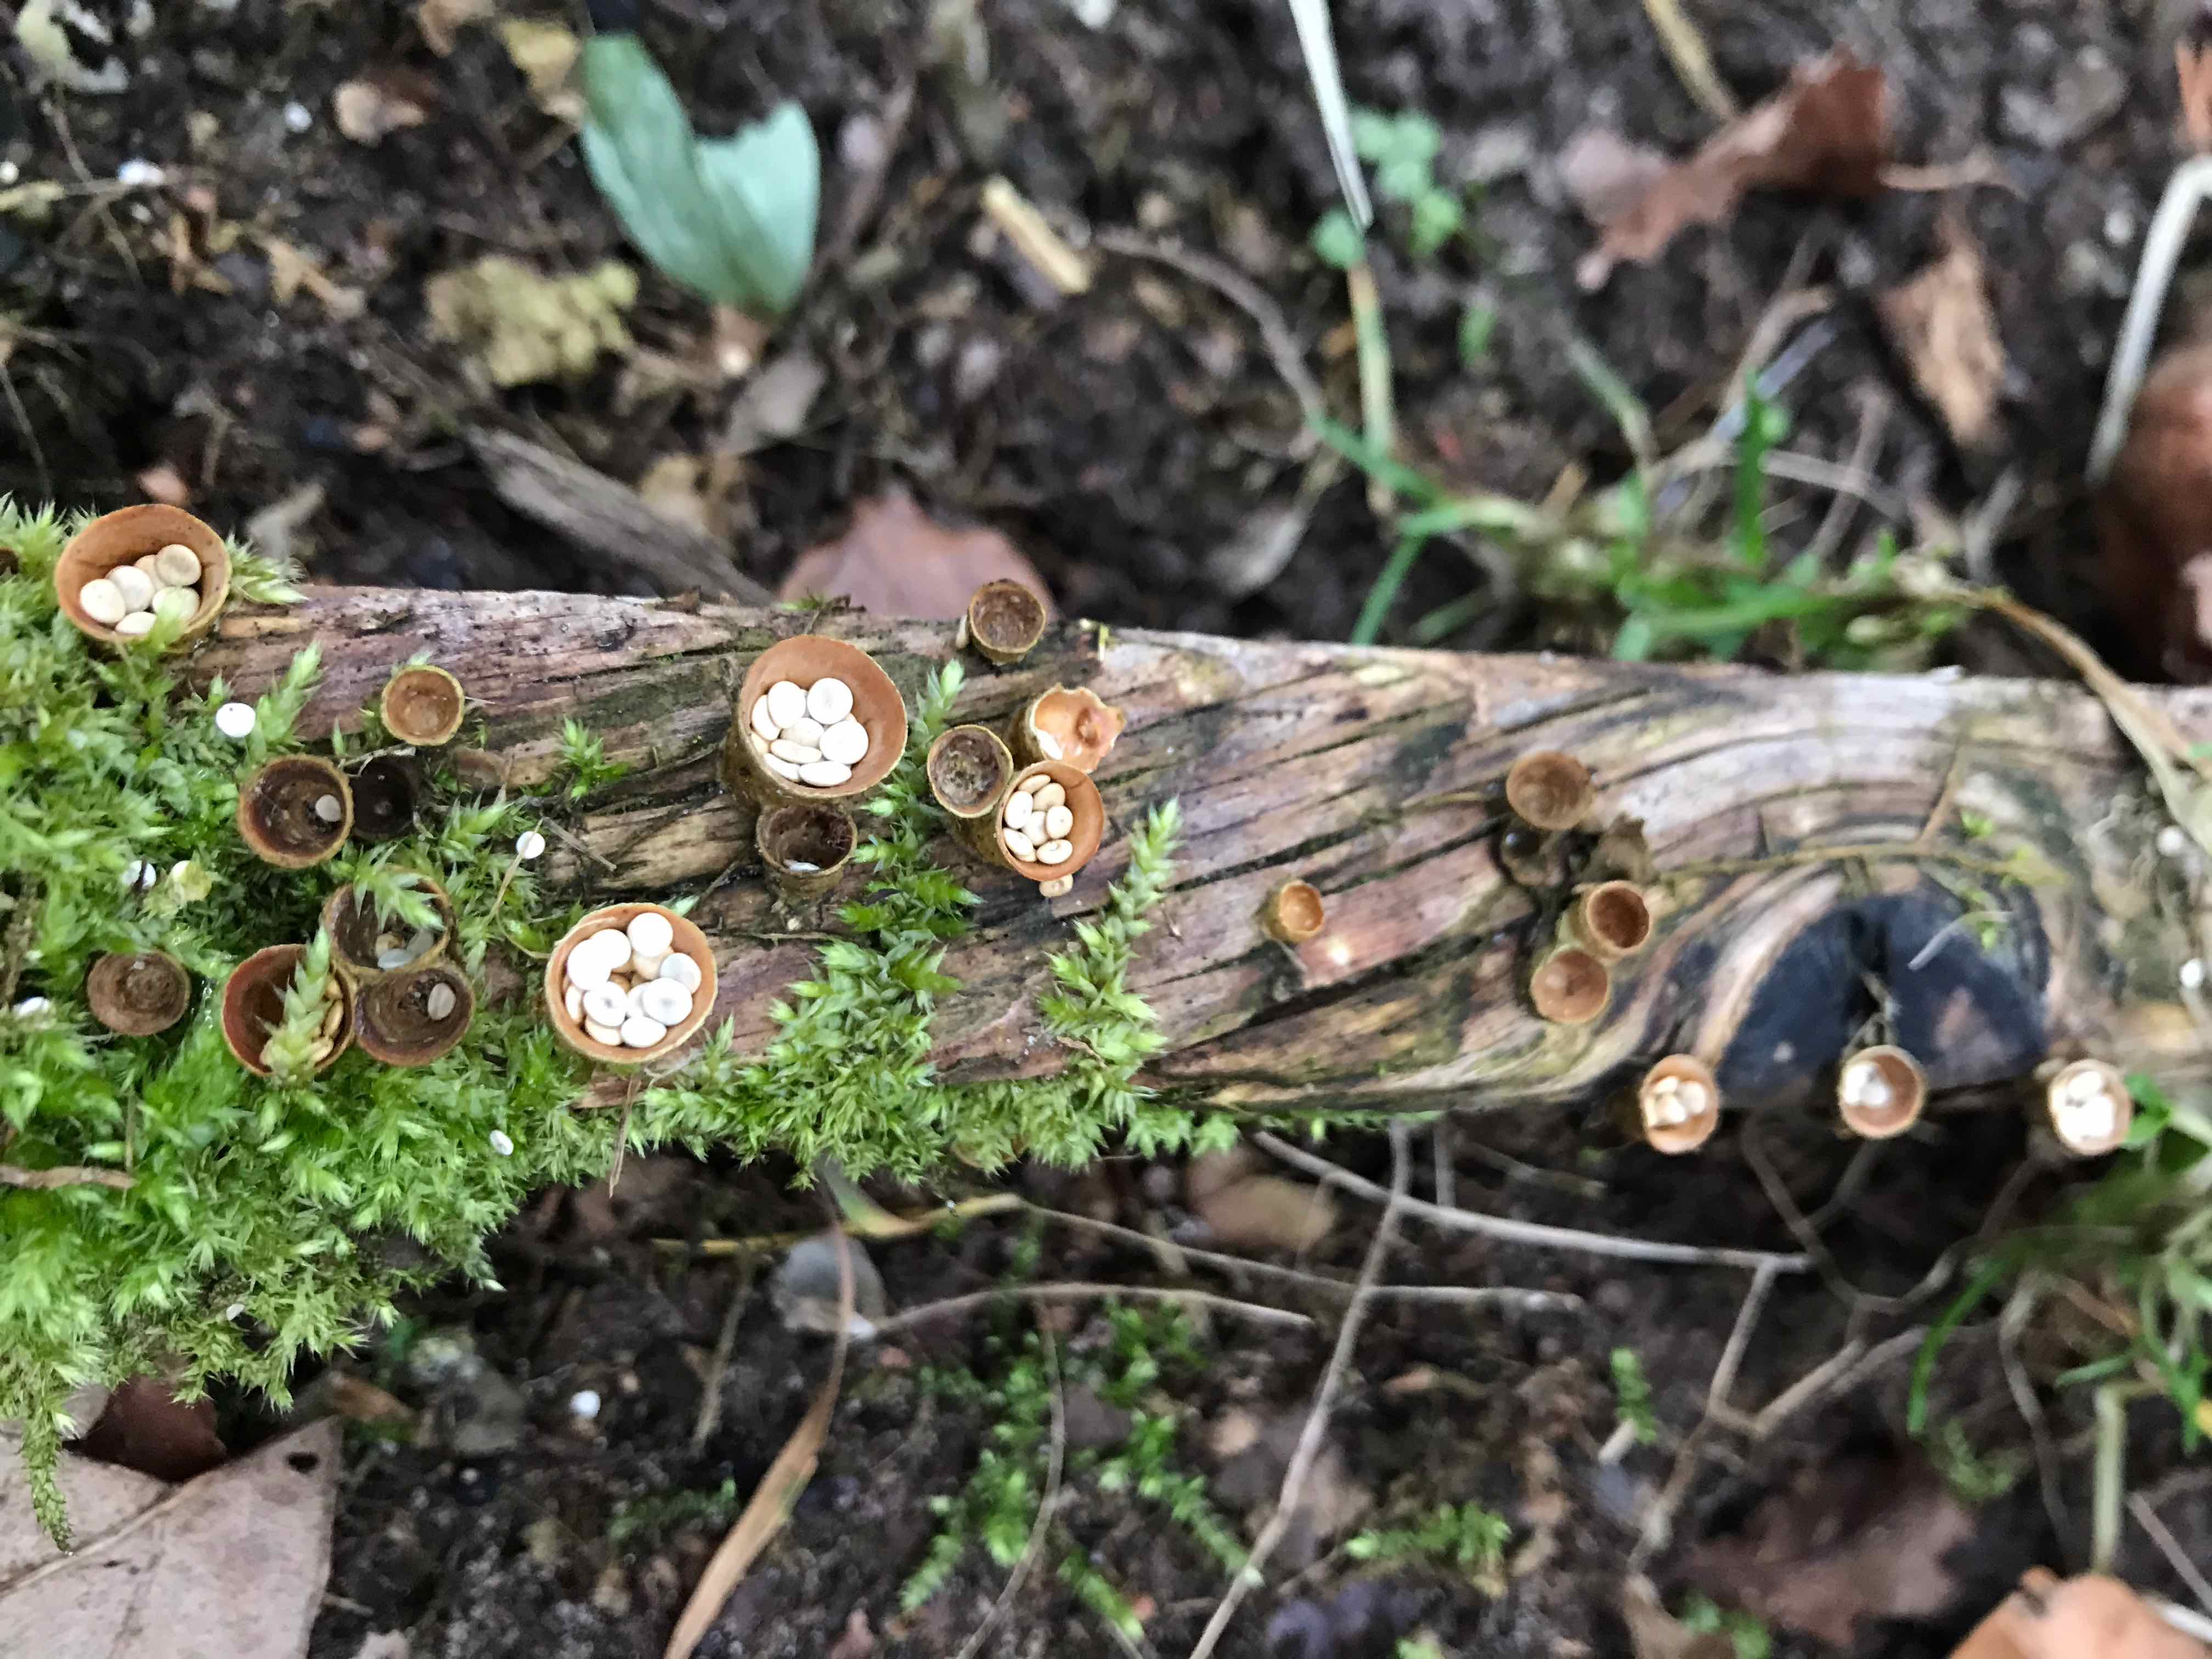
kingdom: Fungi
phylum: Basidiomycota
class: Agaricomycetes
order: Agaricales
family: Nidulariaceae
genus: Crucibulum
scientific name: Crucibulum crucibuliforme
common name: krukkesvamp
